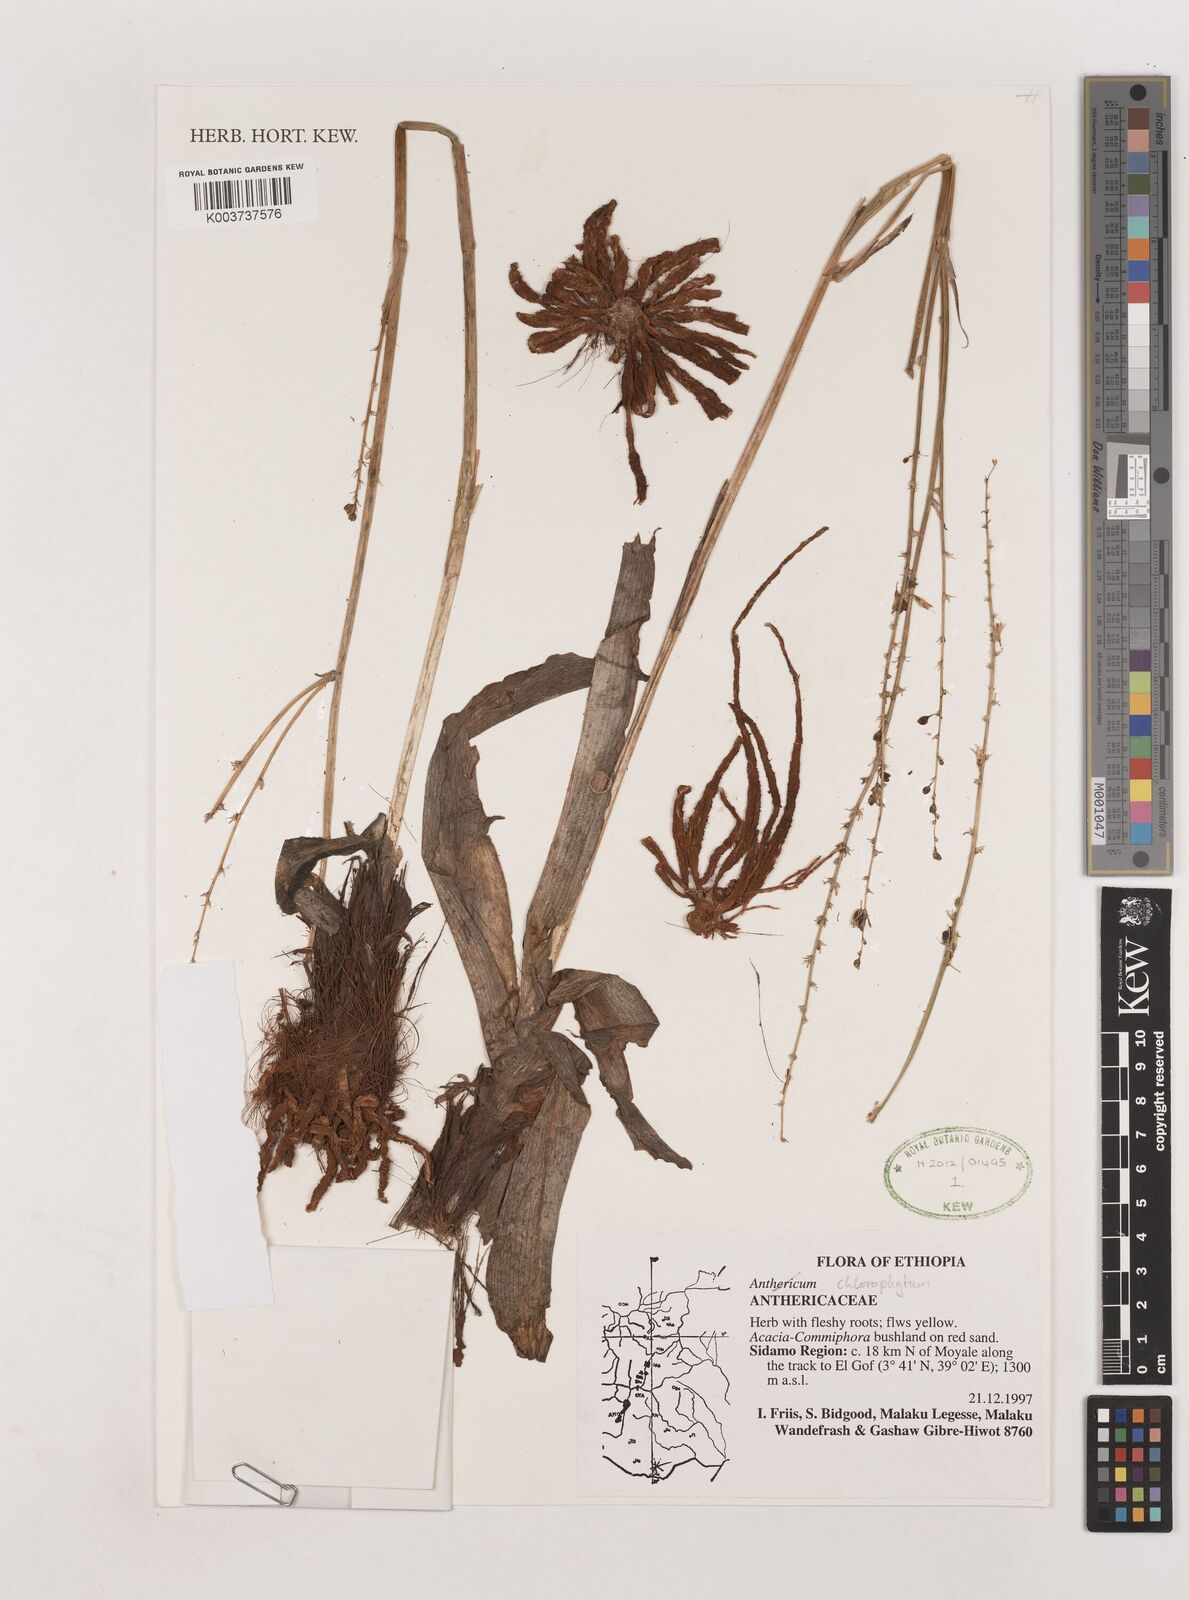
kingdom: Plantae
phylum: Tracheophyta
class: Liliopsida
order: Asparagales
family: Asparagaceae
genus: Chlorophytum
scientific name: Chlorophytum
